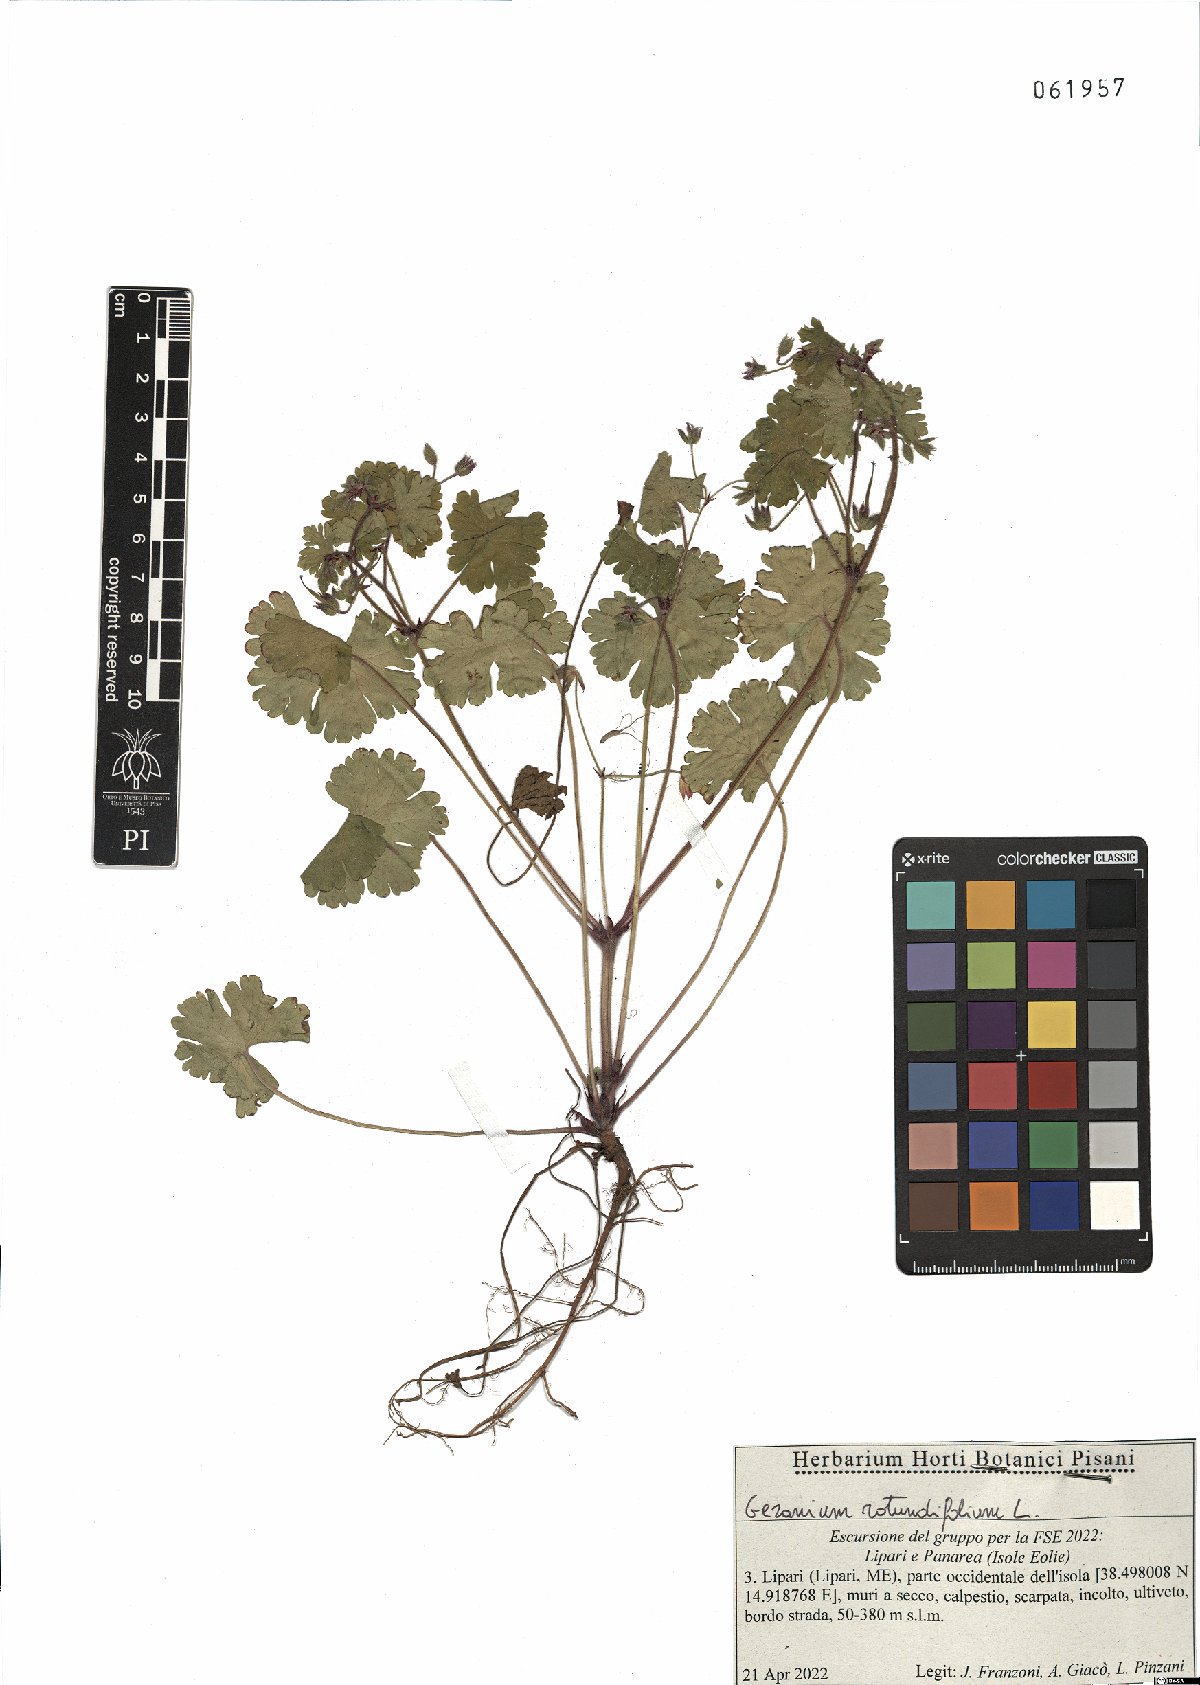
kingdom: Plantae
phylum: Tracheophyta
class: Magnoliopsida
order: Geraniales
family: Geraniaceae
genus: Geranium
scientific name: Geranium rotundifolium
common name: Round-leaved crane's-bill
